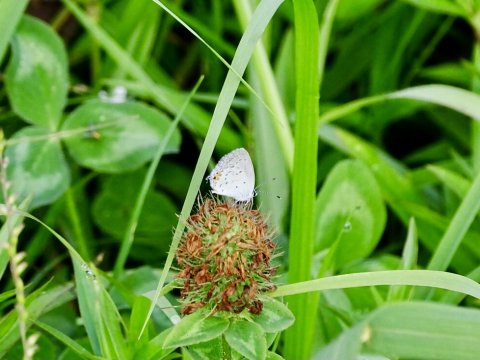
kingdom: Animalia
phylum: Arthropoda
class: Insecta
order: Lepidoptera
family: Lycaenidae
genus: Elkalyce
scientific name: Elkalyce comyntas
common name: Eastern Tailed-Blue
